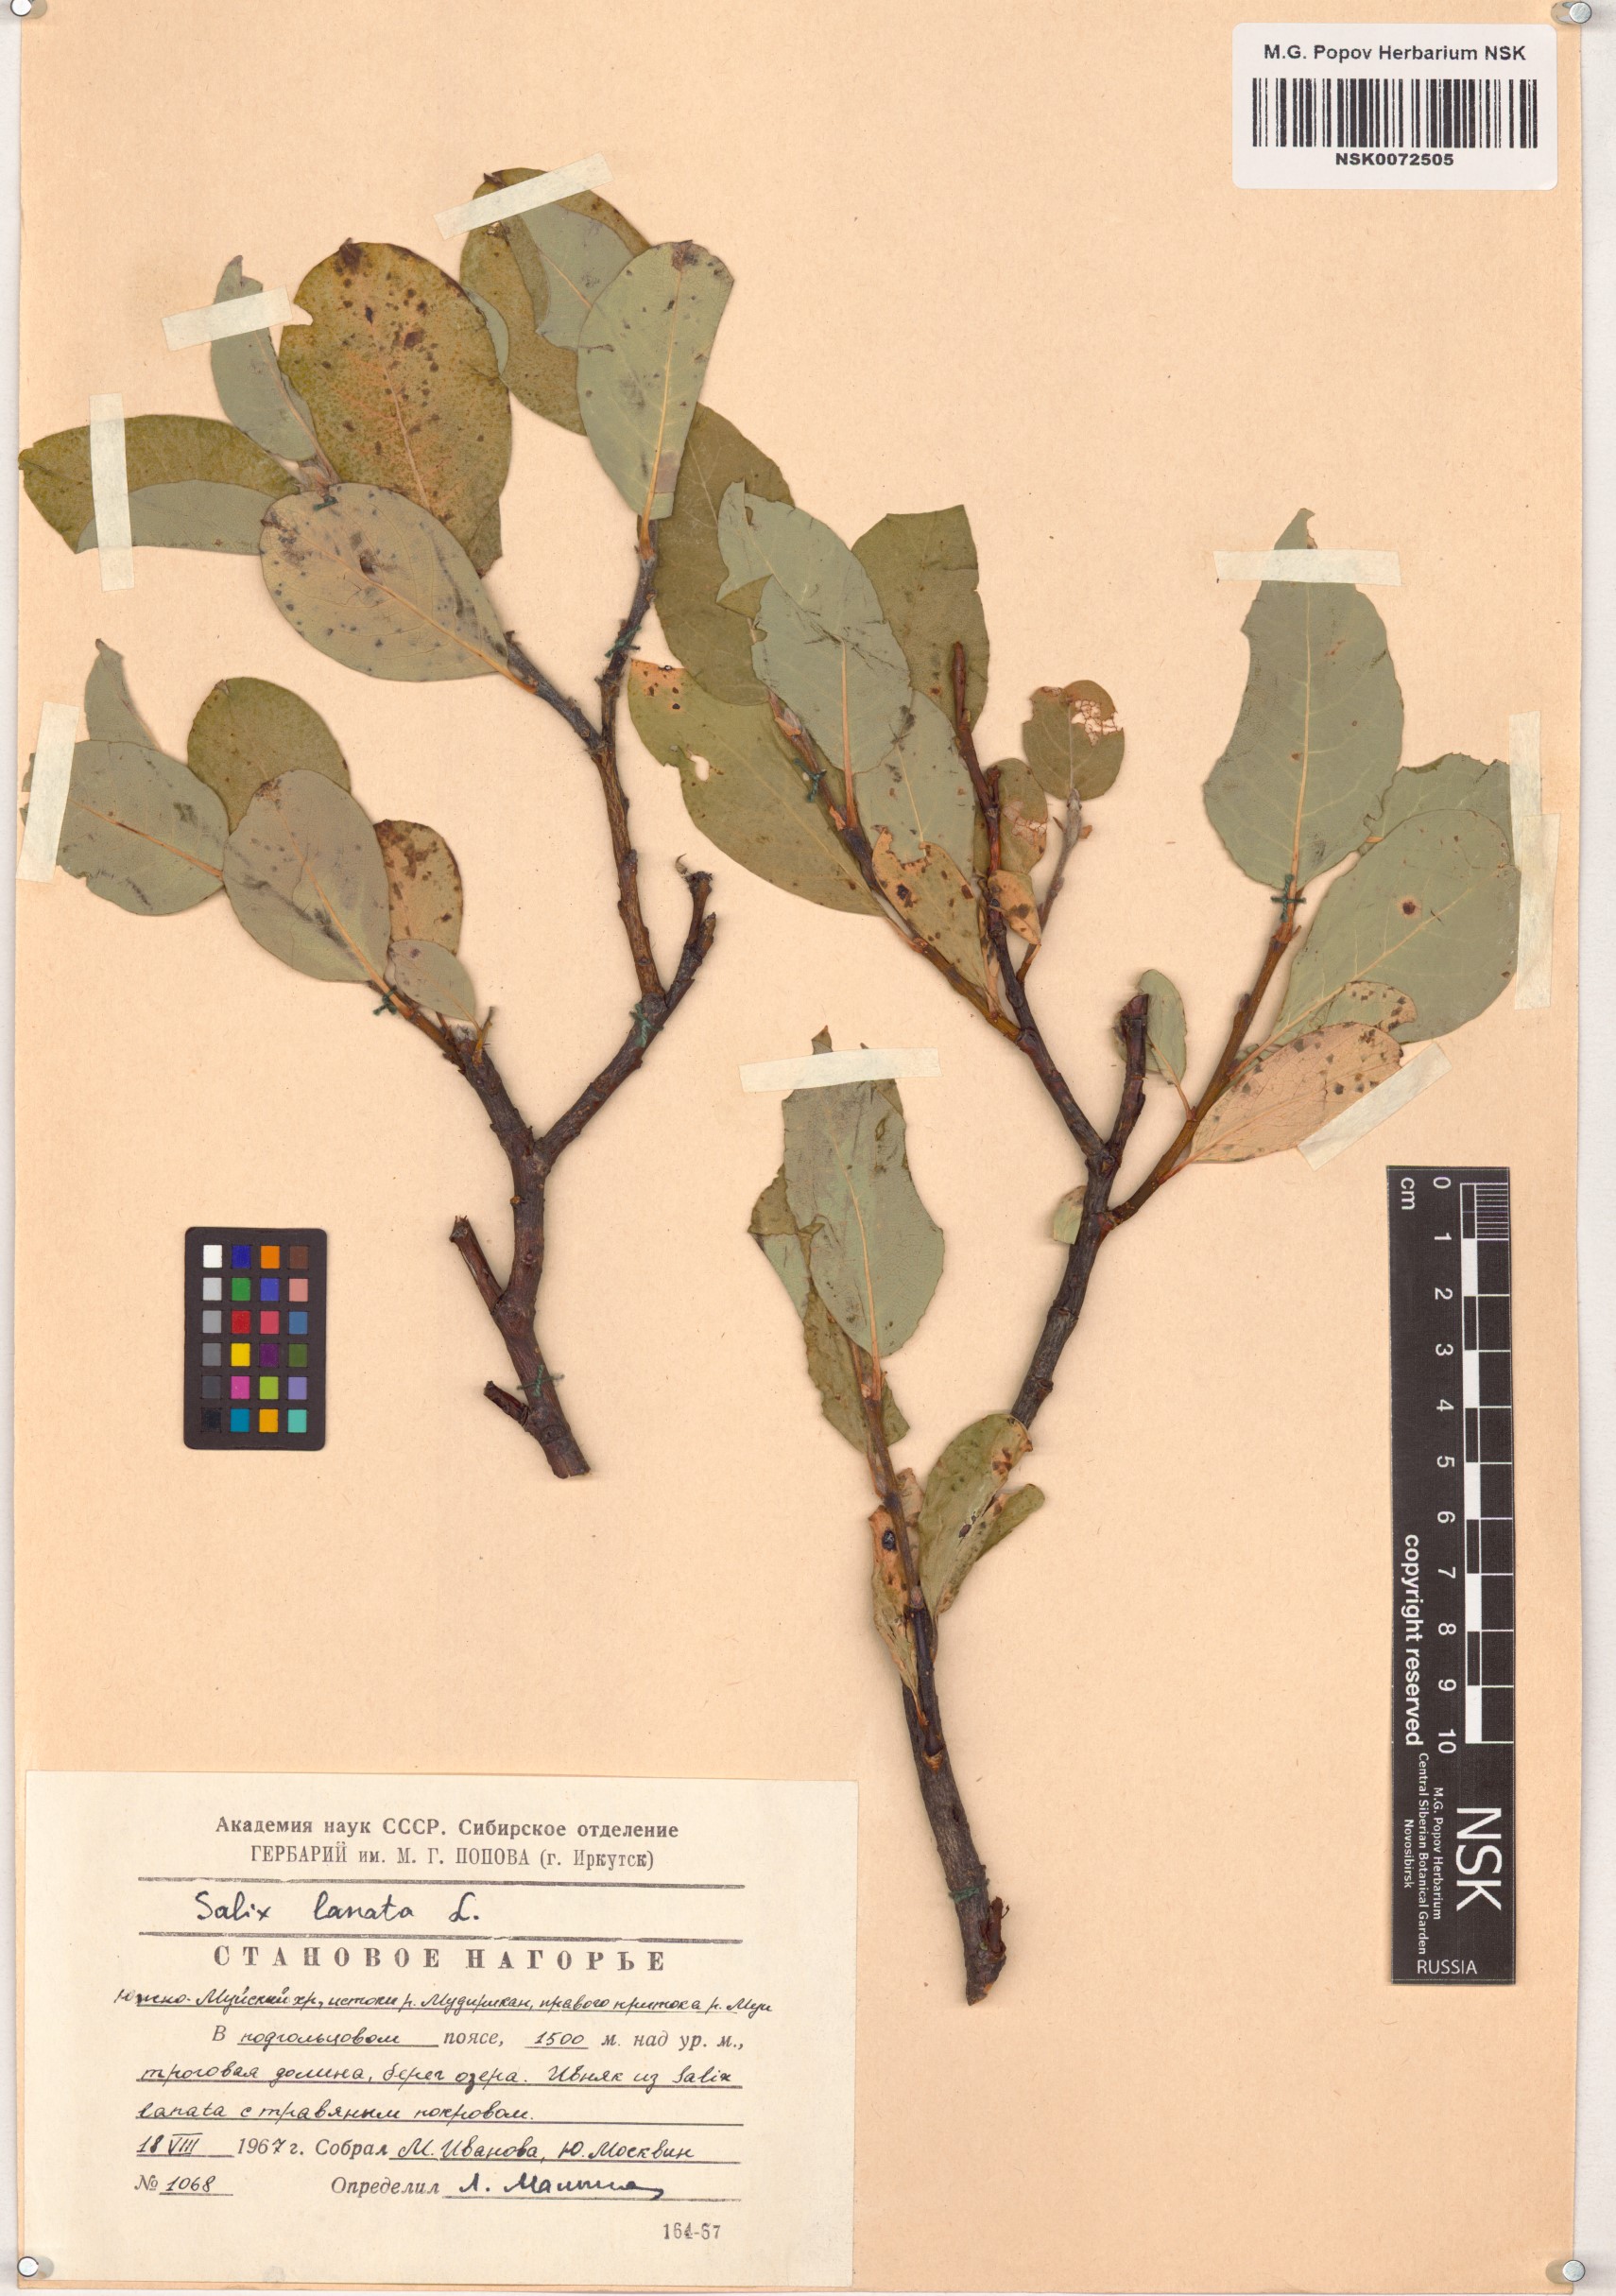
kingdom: Plantae
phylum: Tracheophyta
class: Magnoliopsida
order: Malpighiales
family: Salicaceae
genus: Salix
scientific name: Salix lanata
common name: Woolly willow
